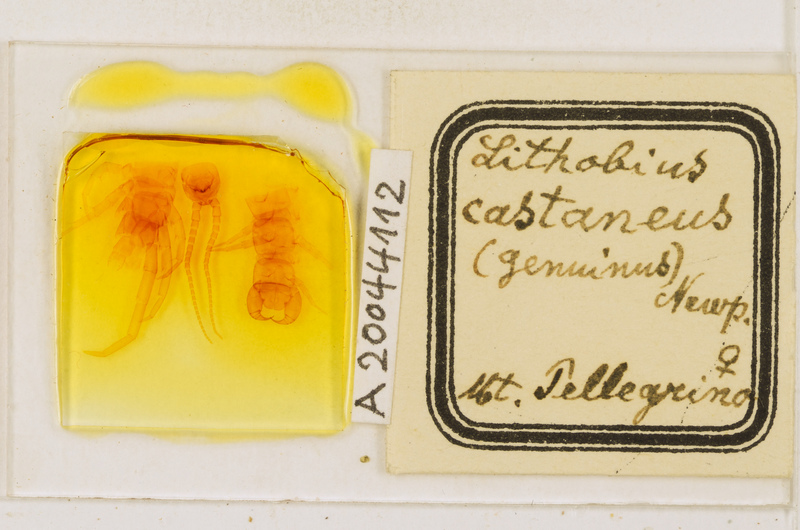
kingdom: Animalia
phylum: Arthropoda
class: Chilopoda
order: Lithobiomorpha
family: Lithobiidae
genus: Lithobius
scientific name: Lithobius castaneus
